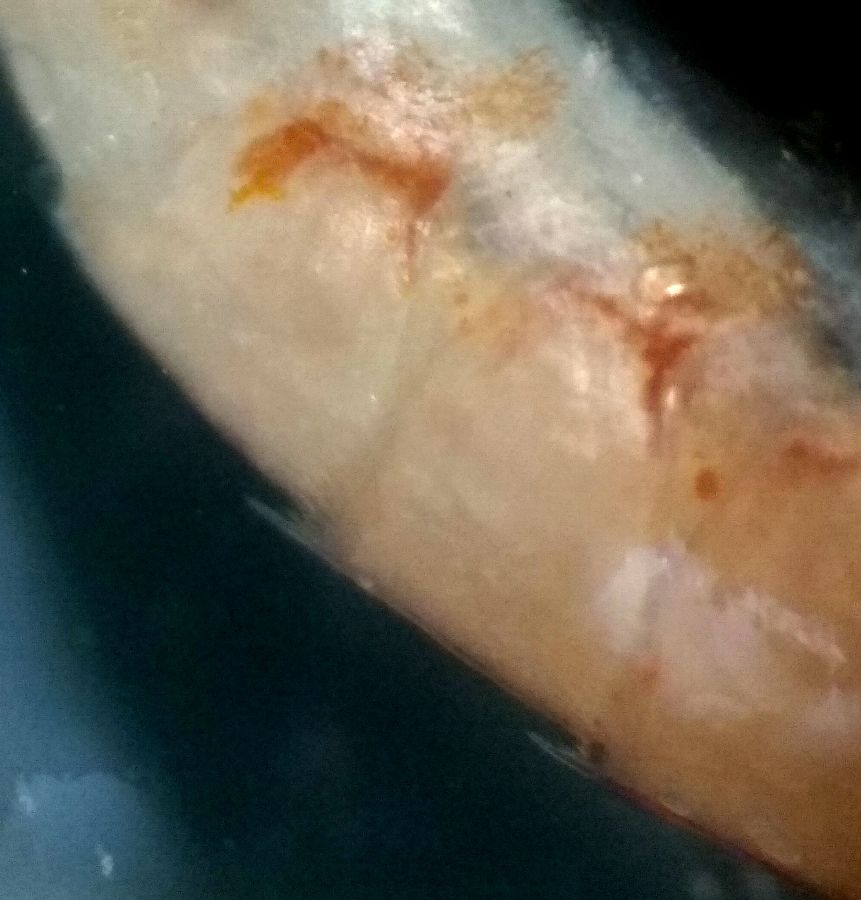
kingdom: Animalia
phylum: Arthropoda
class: Malacostraca
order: Amphipoda
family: Synopiidae
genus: Syrrhoe
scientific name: Syrrhoe crenulata
